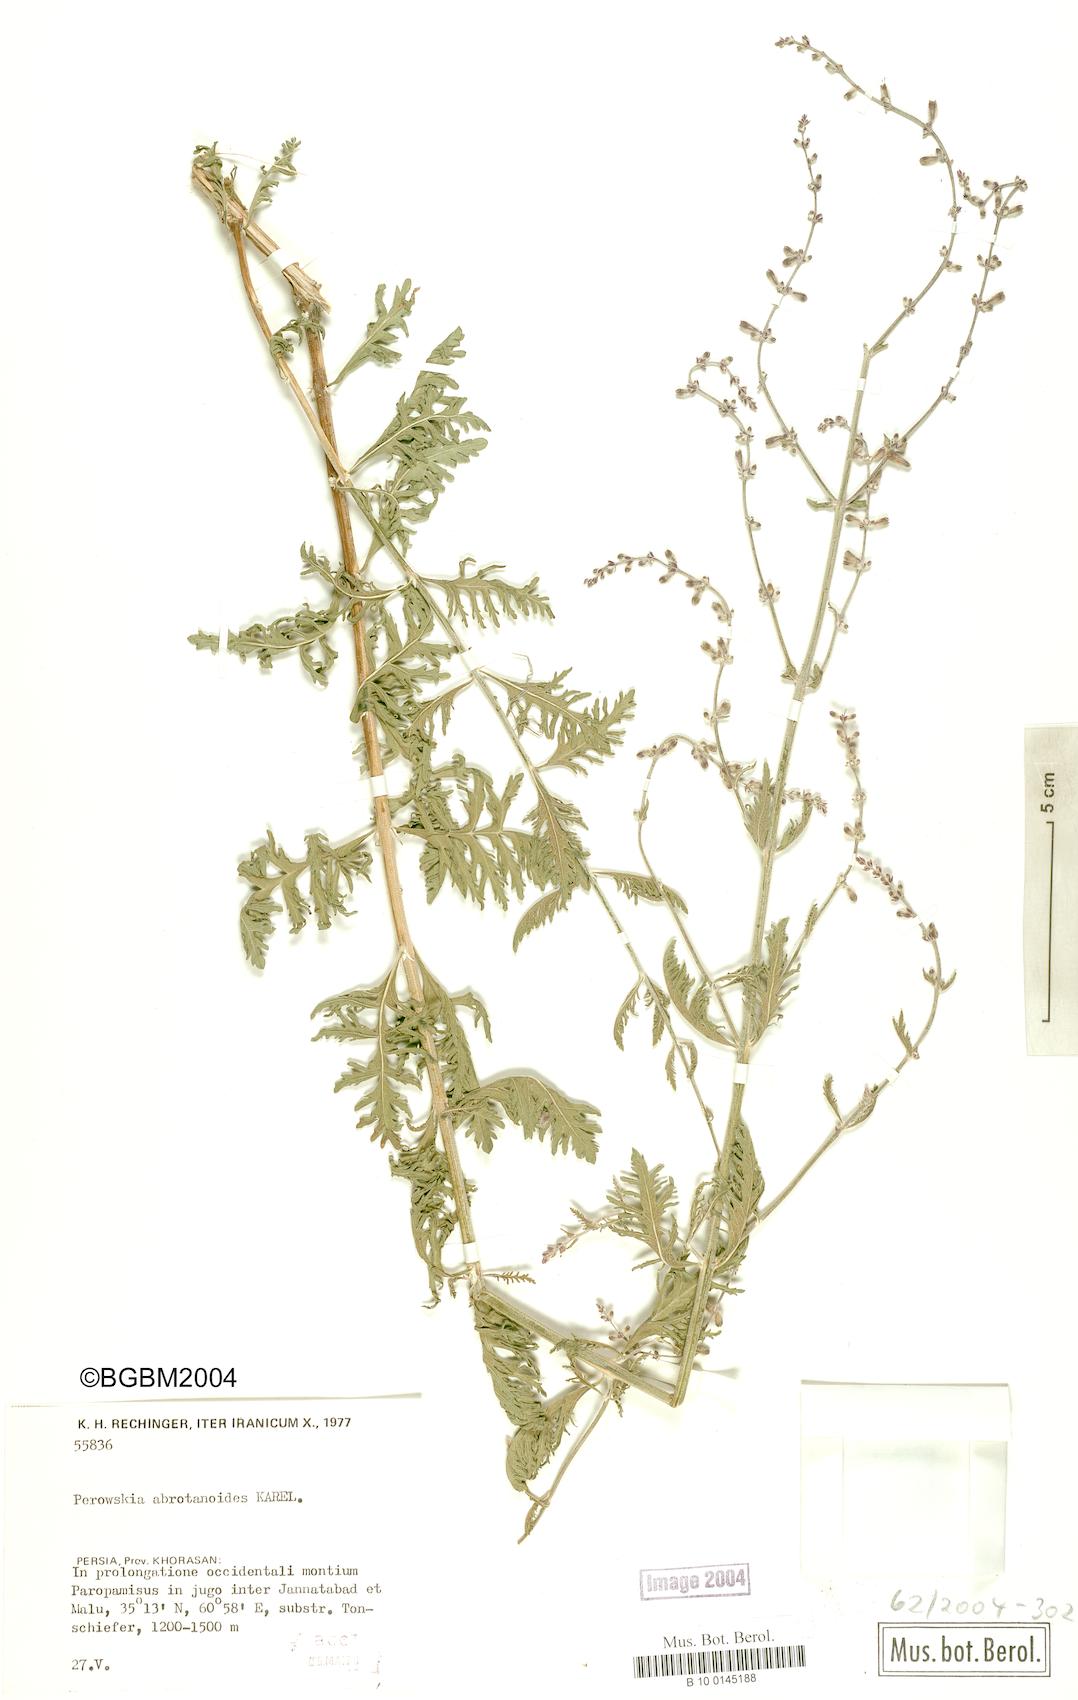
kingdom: Plantae
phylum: Tracheophyta
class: Magnoliopsida
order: Lamiales
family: Lamiaceae
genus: Salvia
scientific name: Salvia abrotanoides
